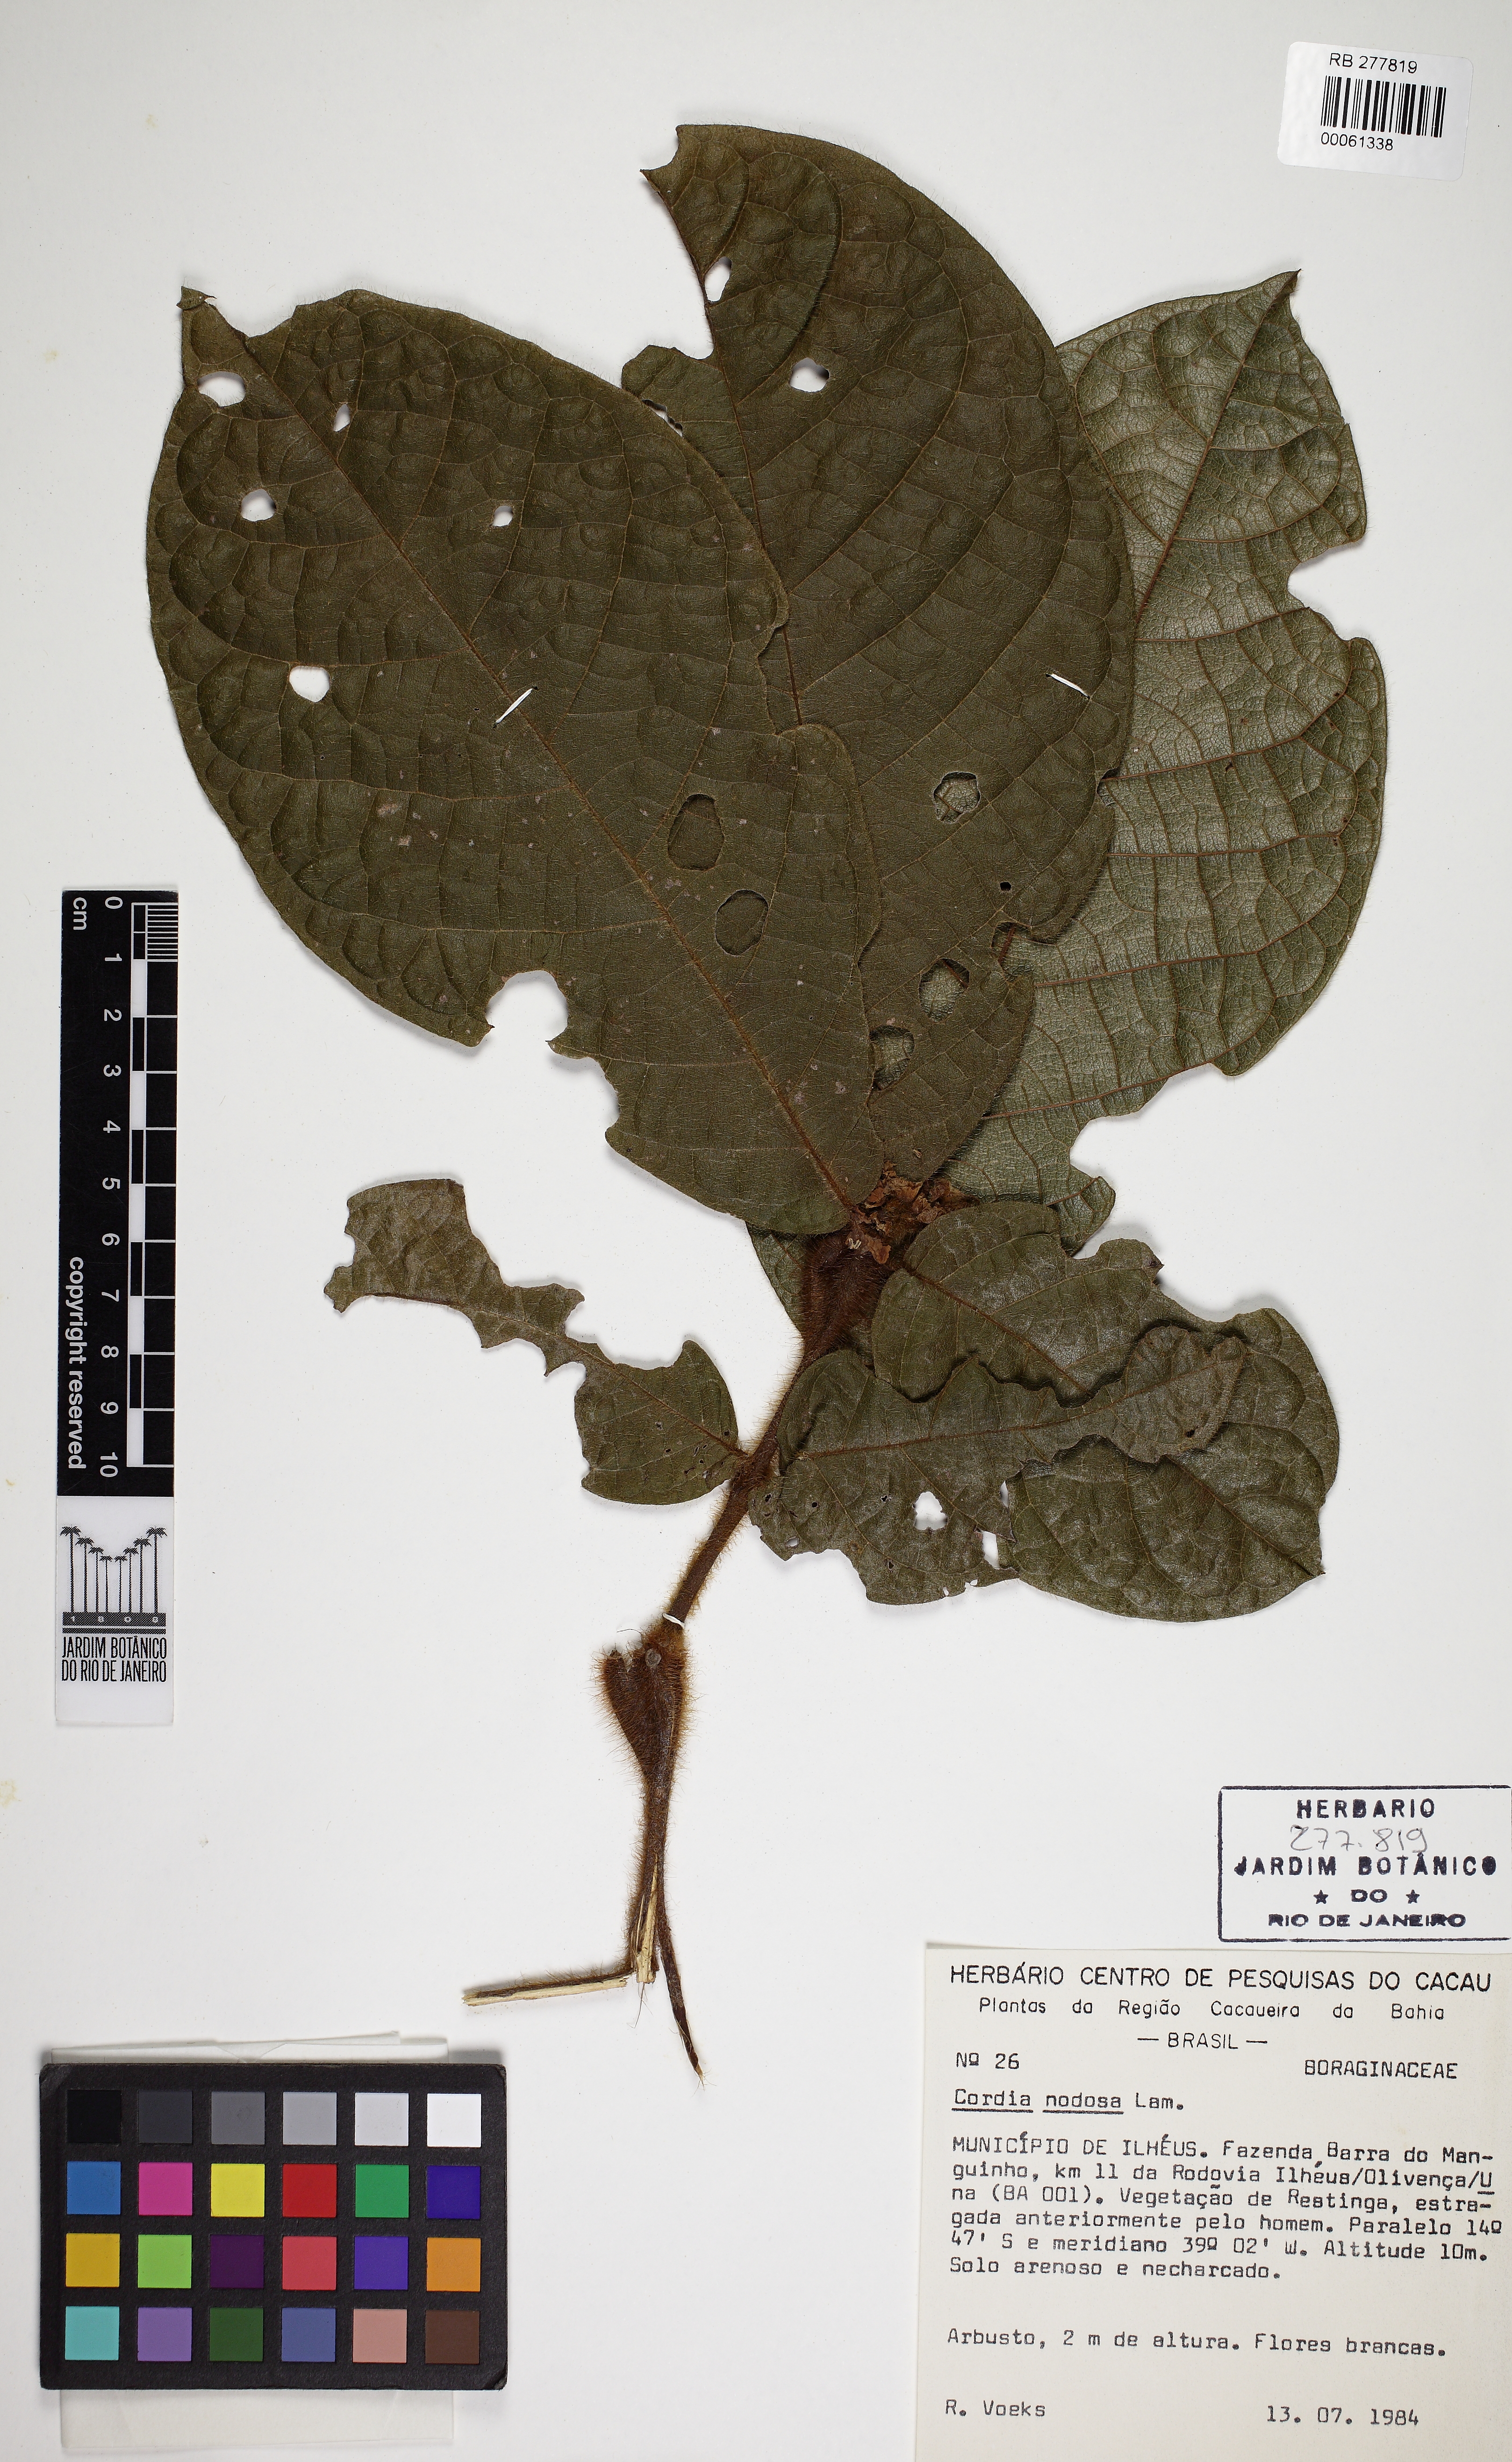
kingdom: Plantae
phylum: Tracheophyta
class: Magnoliopsida
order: Boraginales
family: Cordiaceae
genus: Cordia
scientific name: Cordia nodosa
